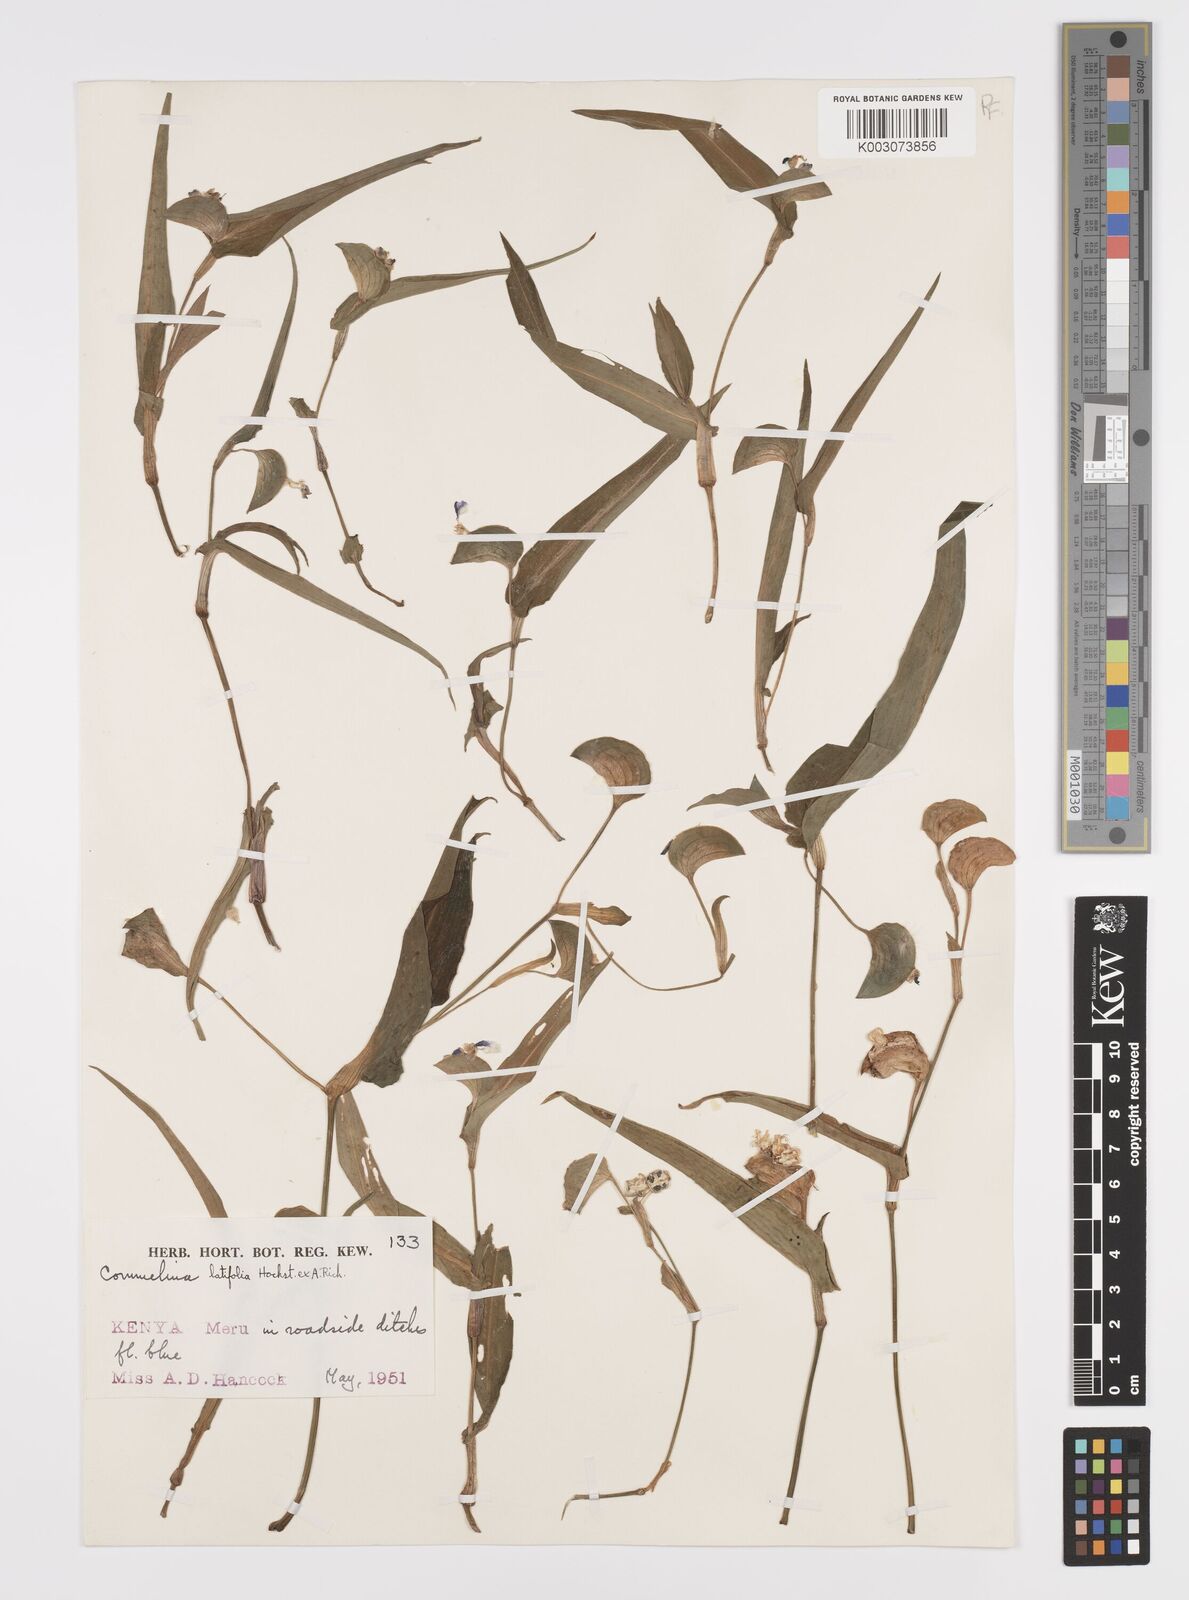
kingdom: Plantae
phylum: Tracheophyta
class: Liliopsida
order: Commelinales
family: Commelinaceae
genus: Commelina
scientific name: Commelina latifolia
